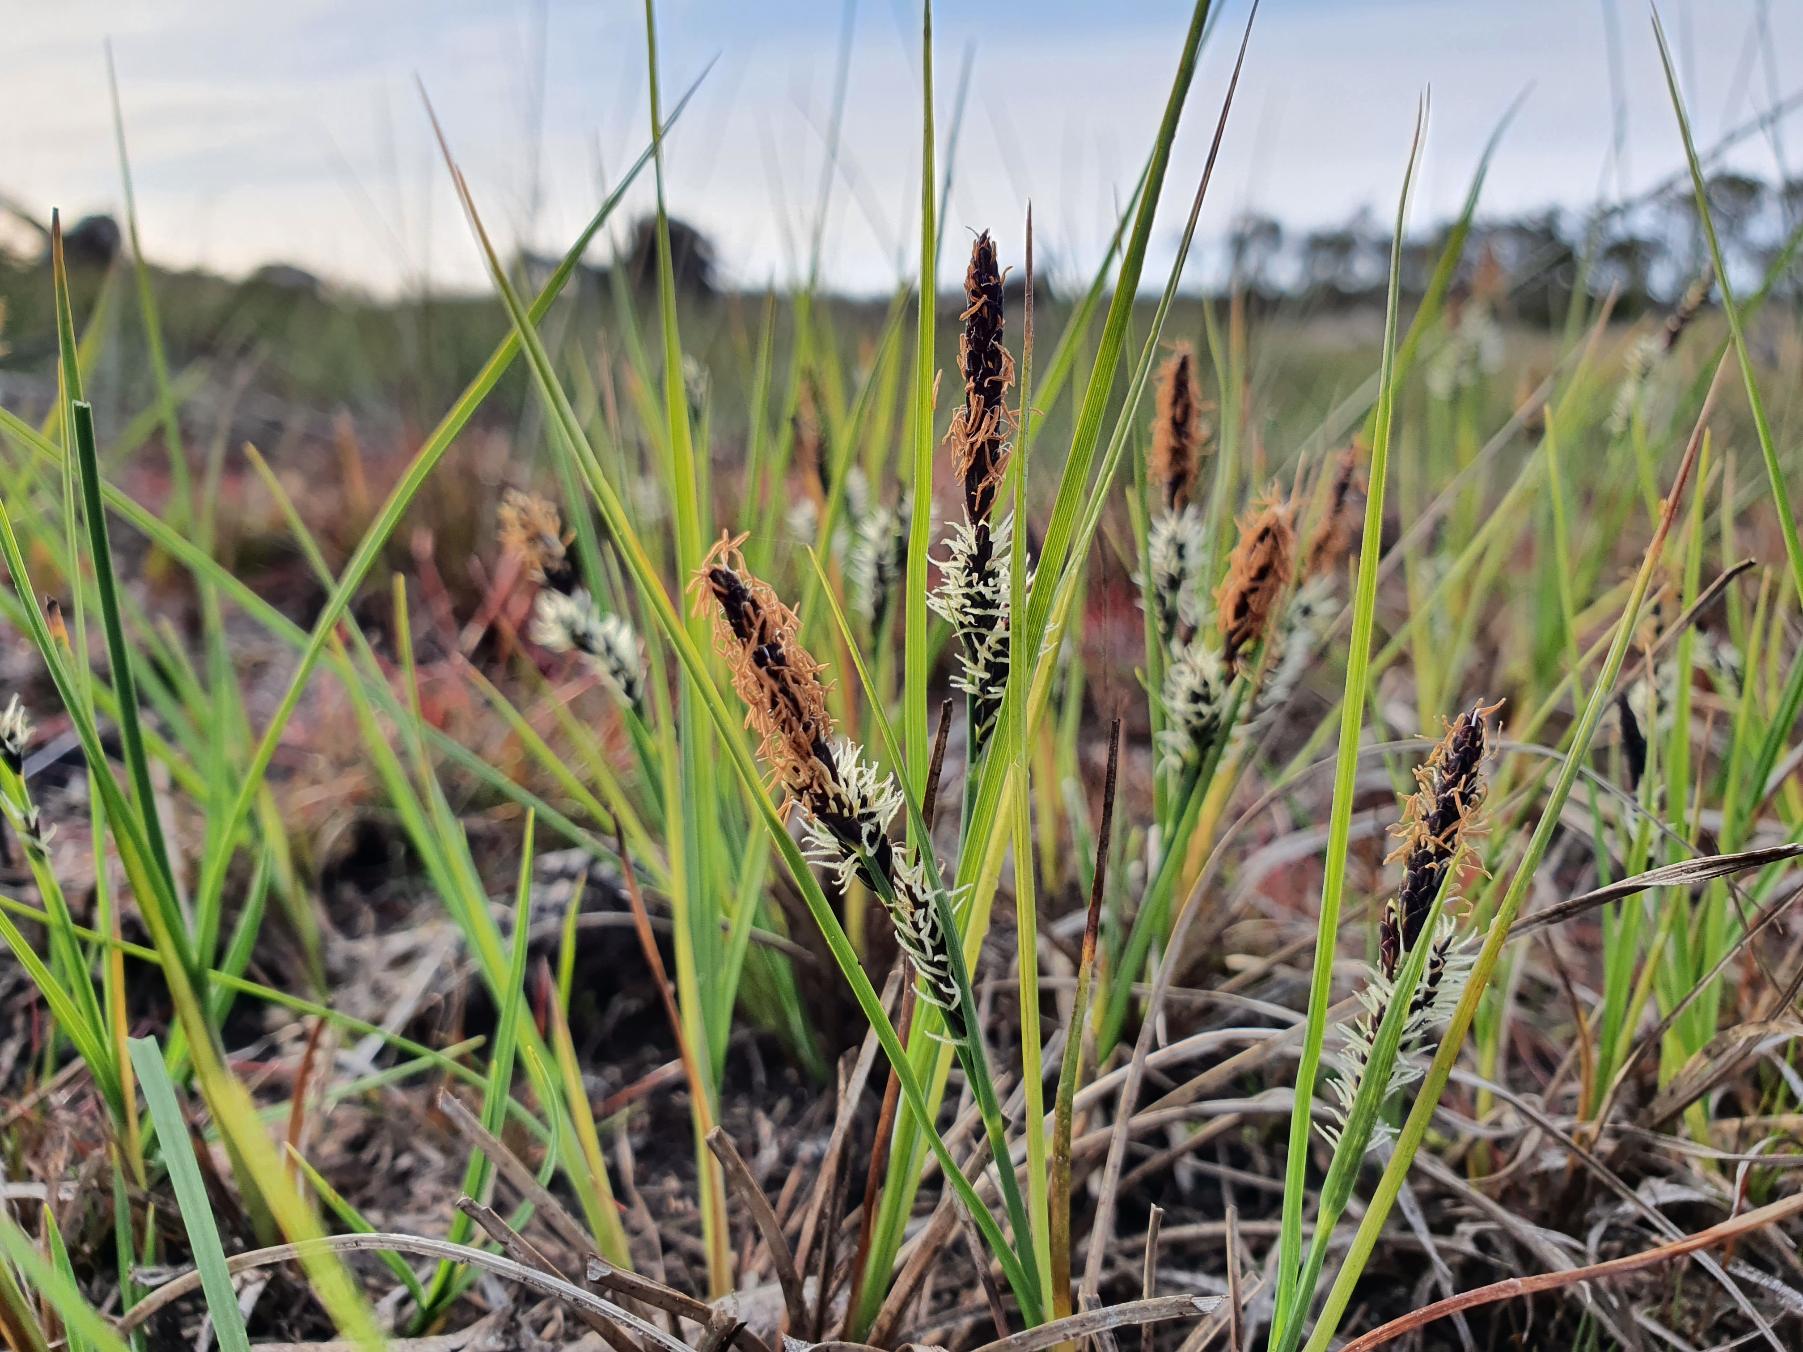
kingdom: Plantae
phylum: Tracheophyta
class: Liliopsida
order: Poales
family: Cyperaceae
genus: Carex
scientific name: Carex nigra
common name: Almindelig star
